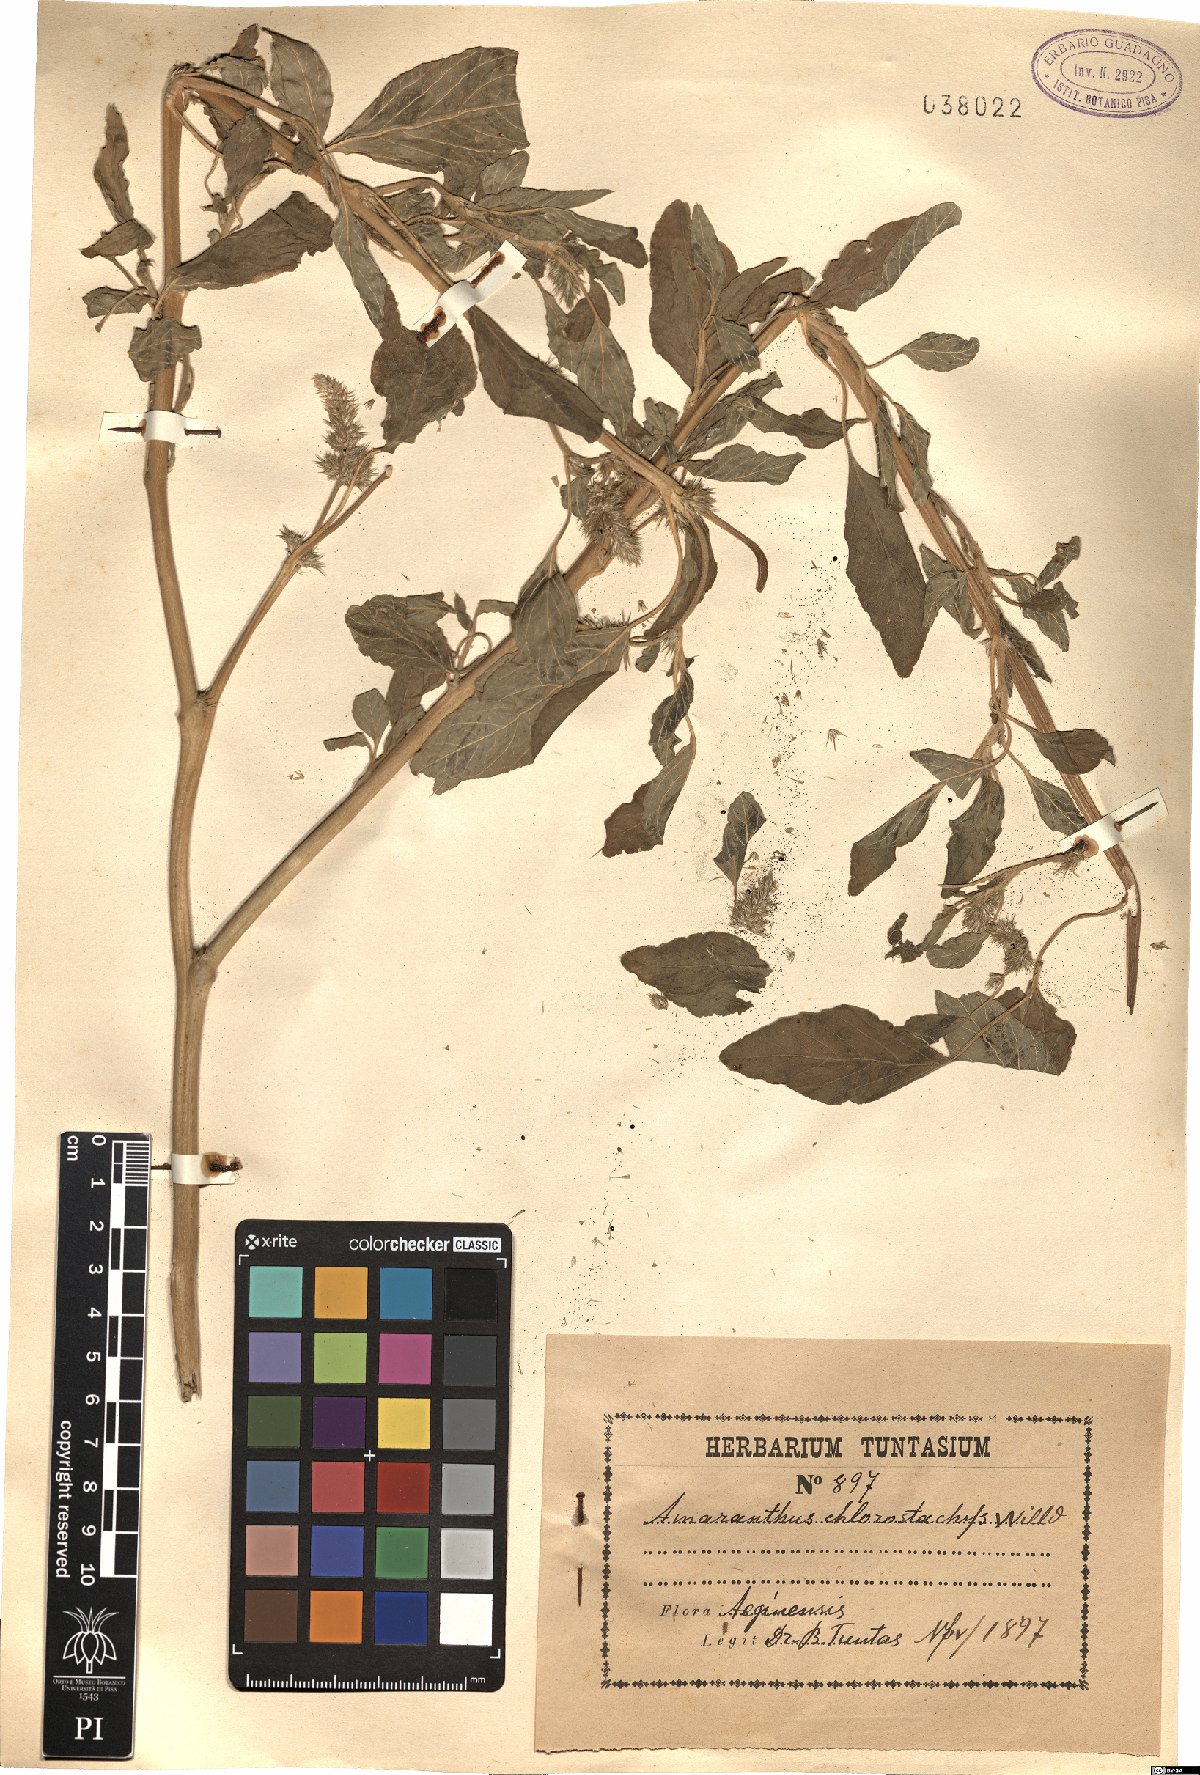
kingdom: Plantae
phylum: Tracheophyta
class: Magnoliopsida
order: Caryophyllales
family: Amaranthaceae
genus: Amaranthus
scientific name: Amaranthus
